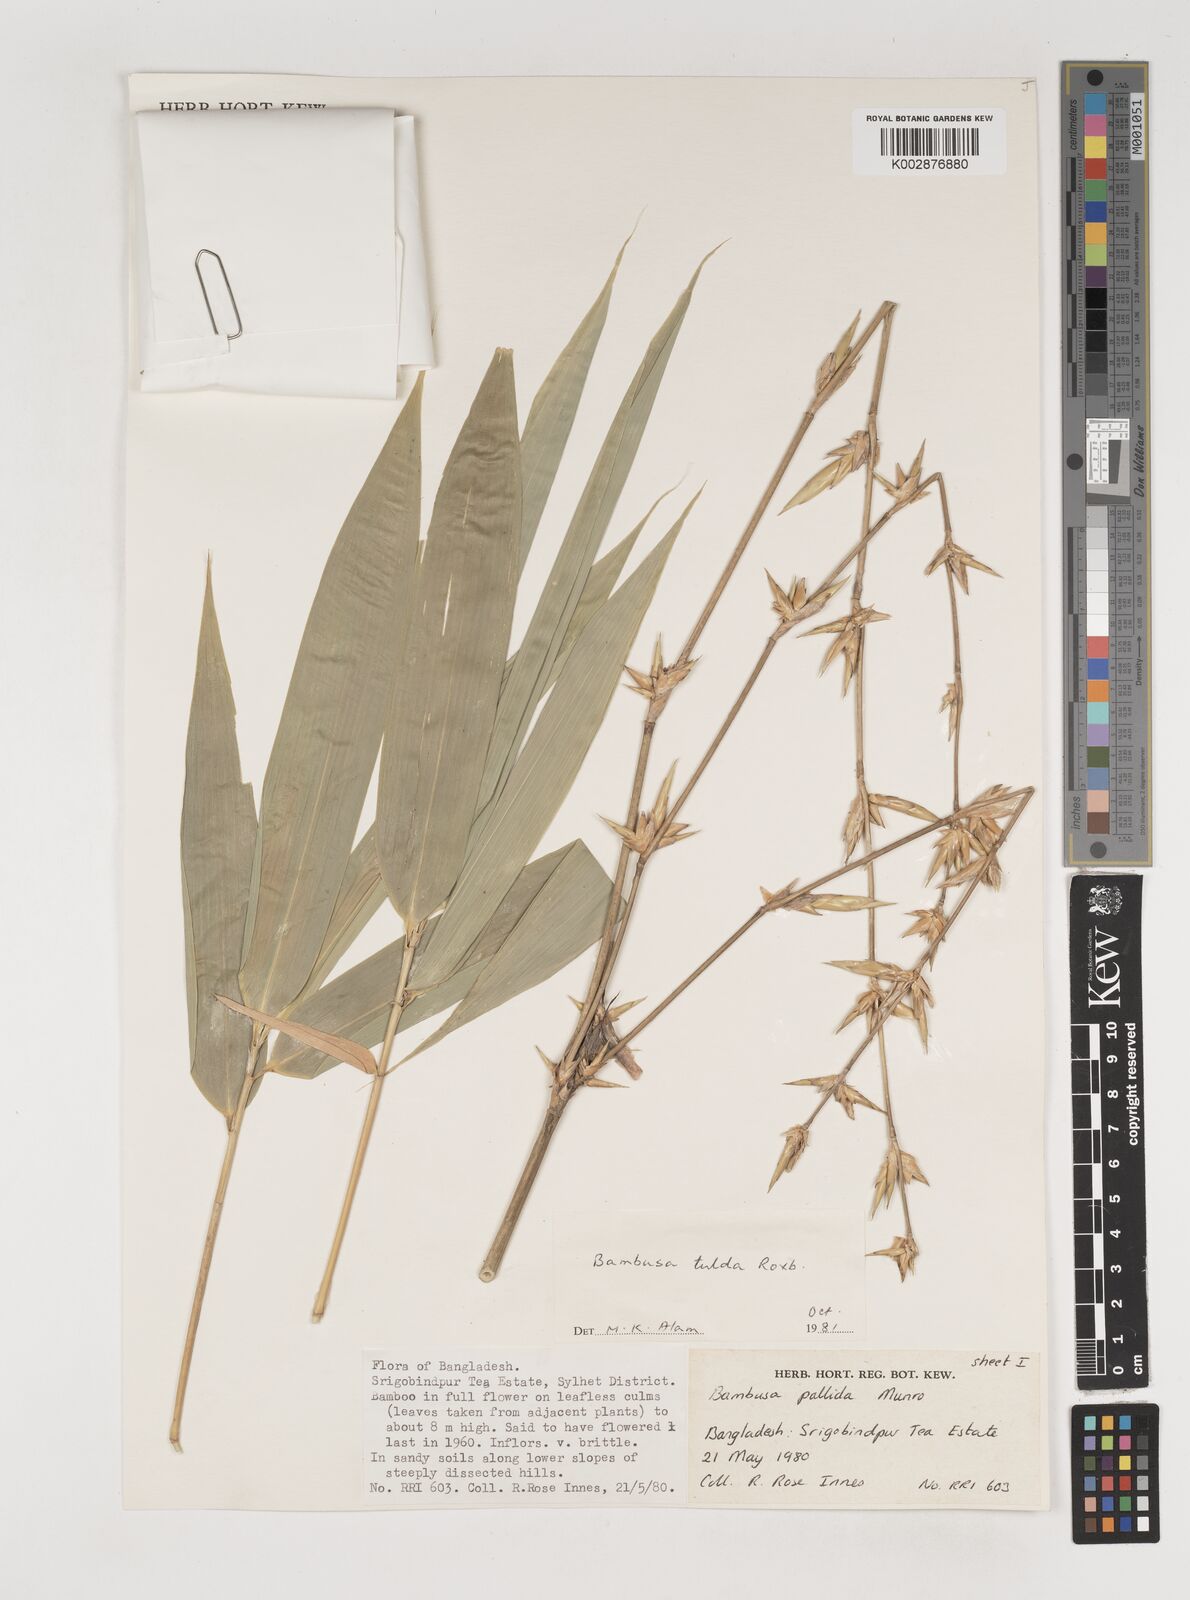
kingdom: Plantae
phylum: Tracheophyta
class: Liliopsida
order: Poales
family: Poaceae
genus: Bambusa
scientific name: Bambusa tuldoides
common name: Verdant bamboo
